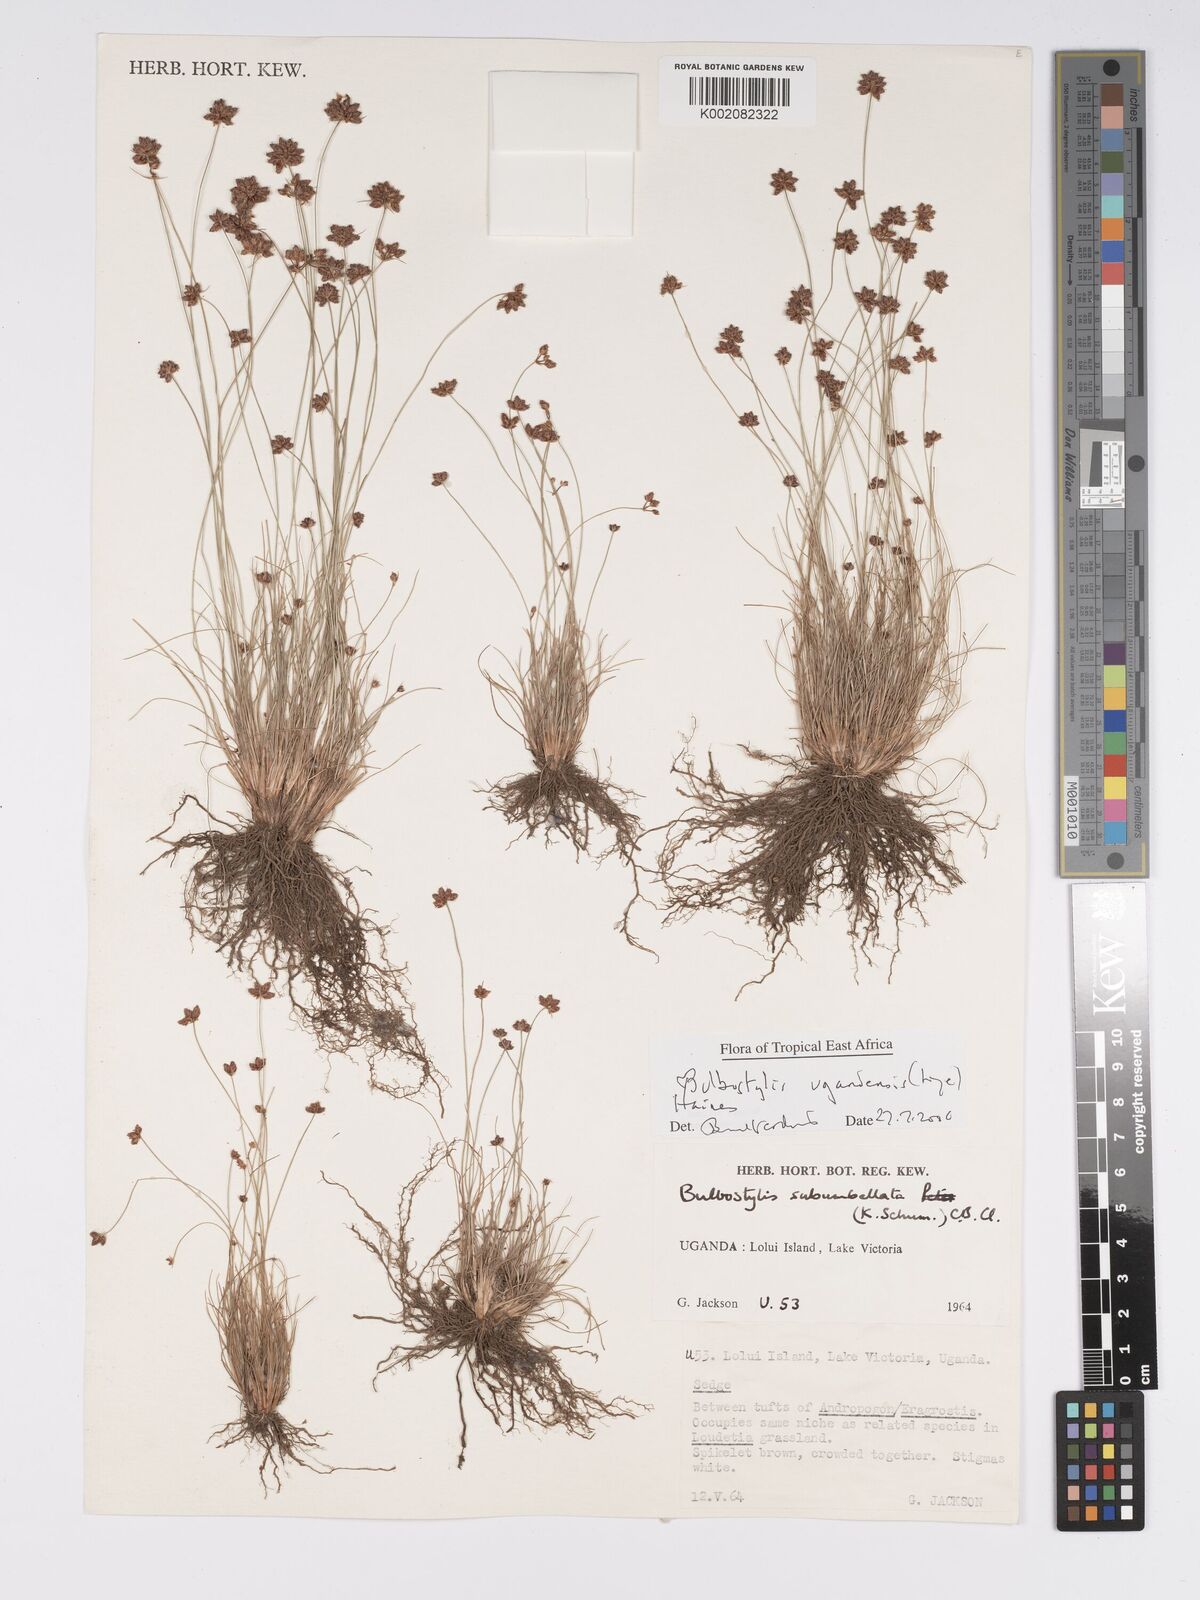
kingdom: Plantae
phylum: Tracheophyta
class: Liliopsida
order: Poales
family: Cyperaceae
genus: Bulbostylis
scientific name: Bulbostylis ugandensis
